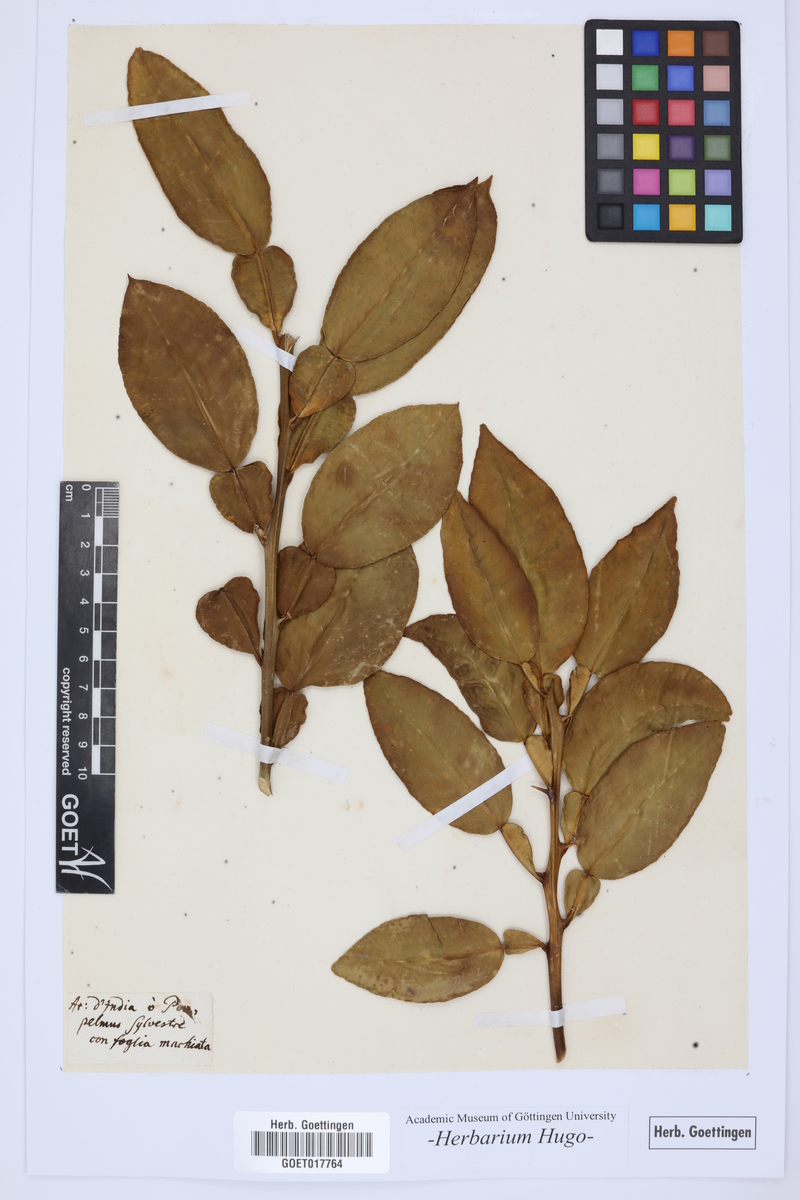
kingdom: Plantae
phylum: Tracheophyta
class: Magnoliopsida
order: Sapindales
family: Rutaceae
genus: Citrus
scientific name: Citrus
